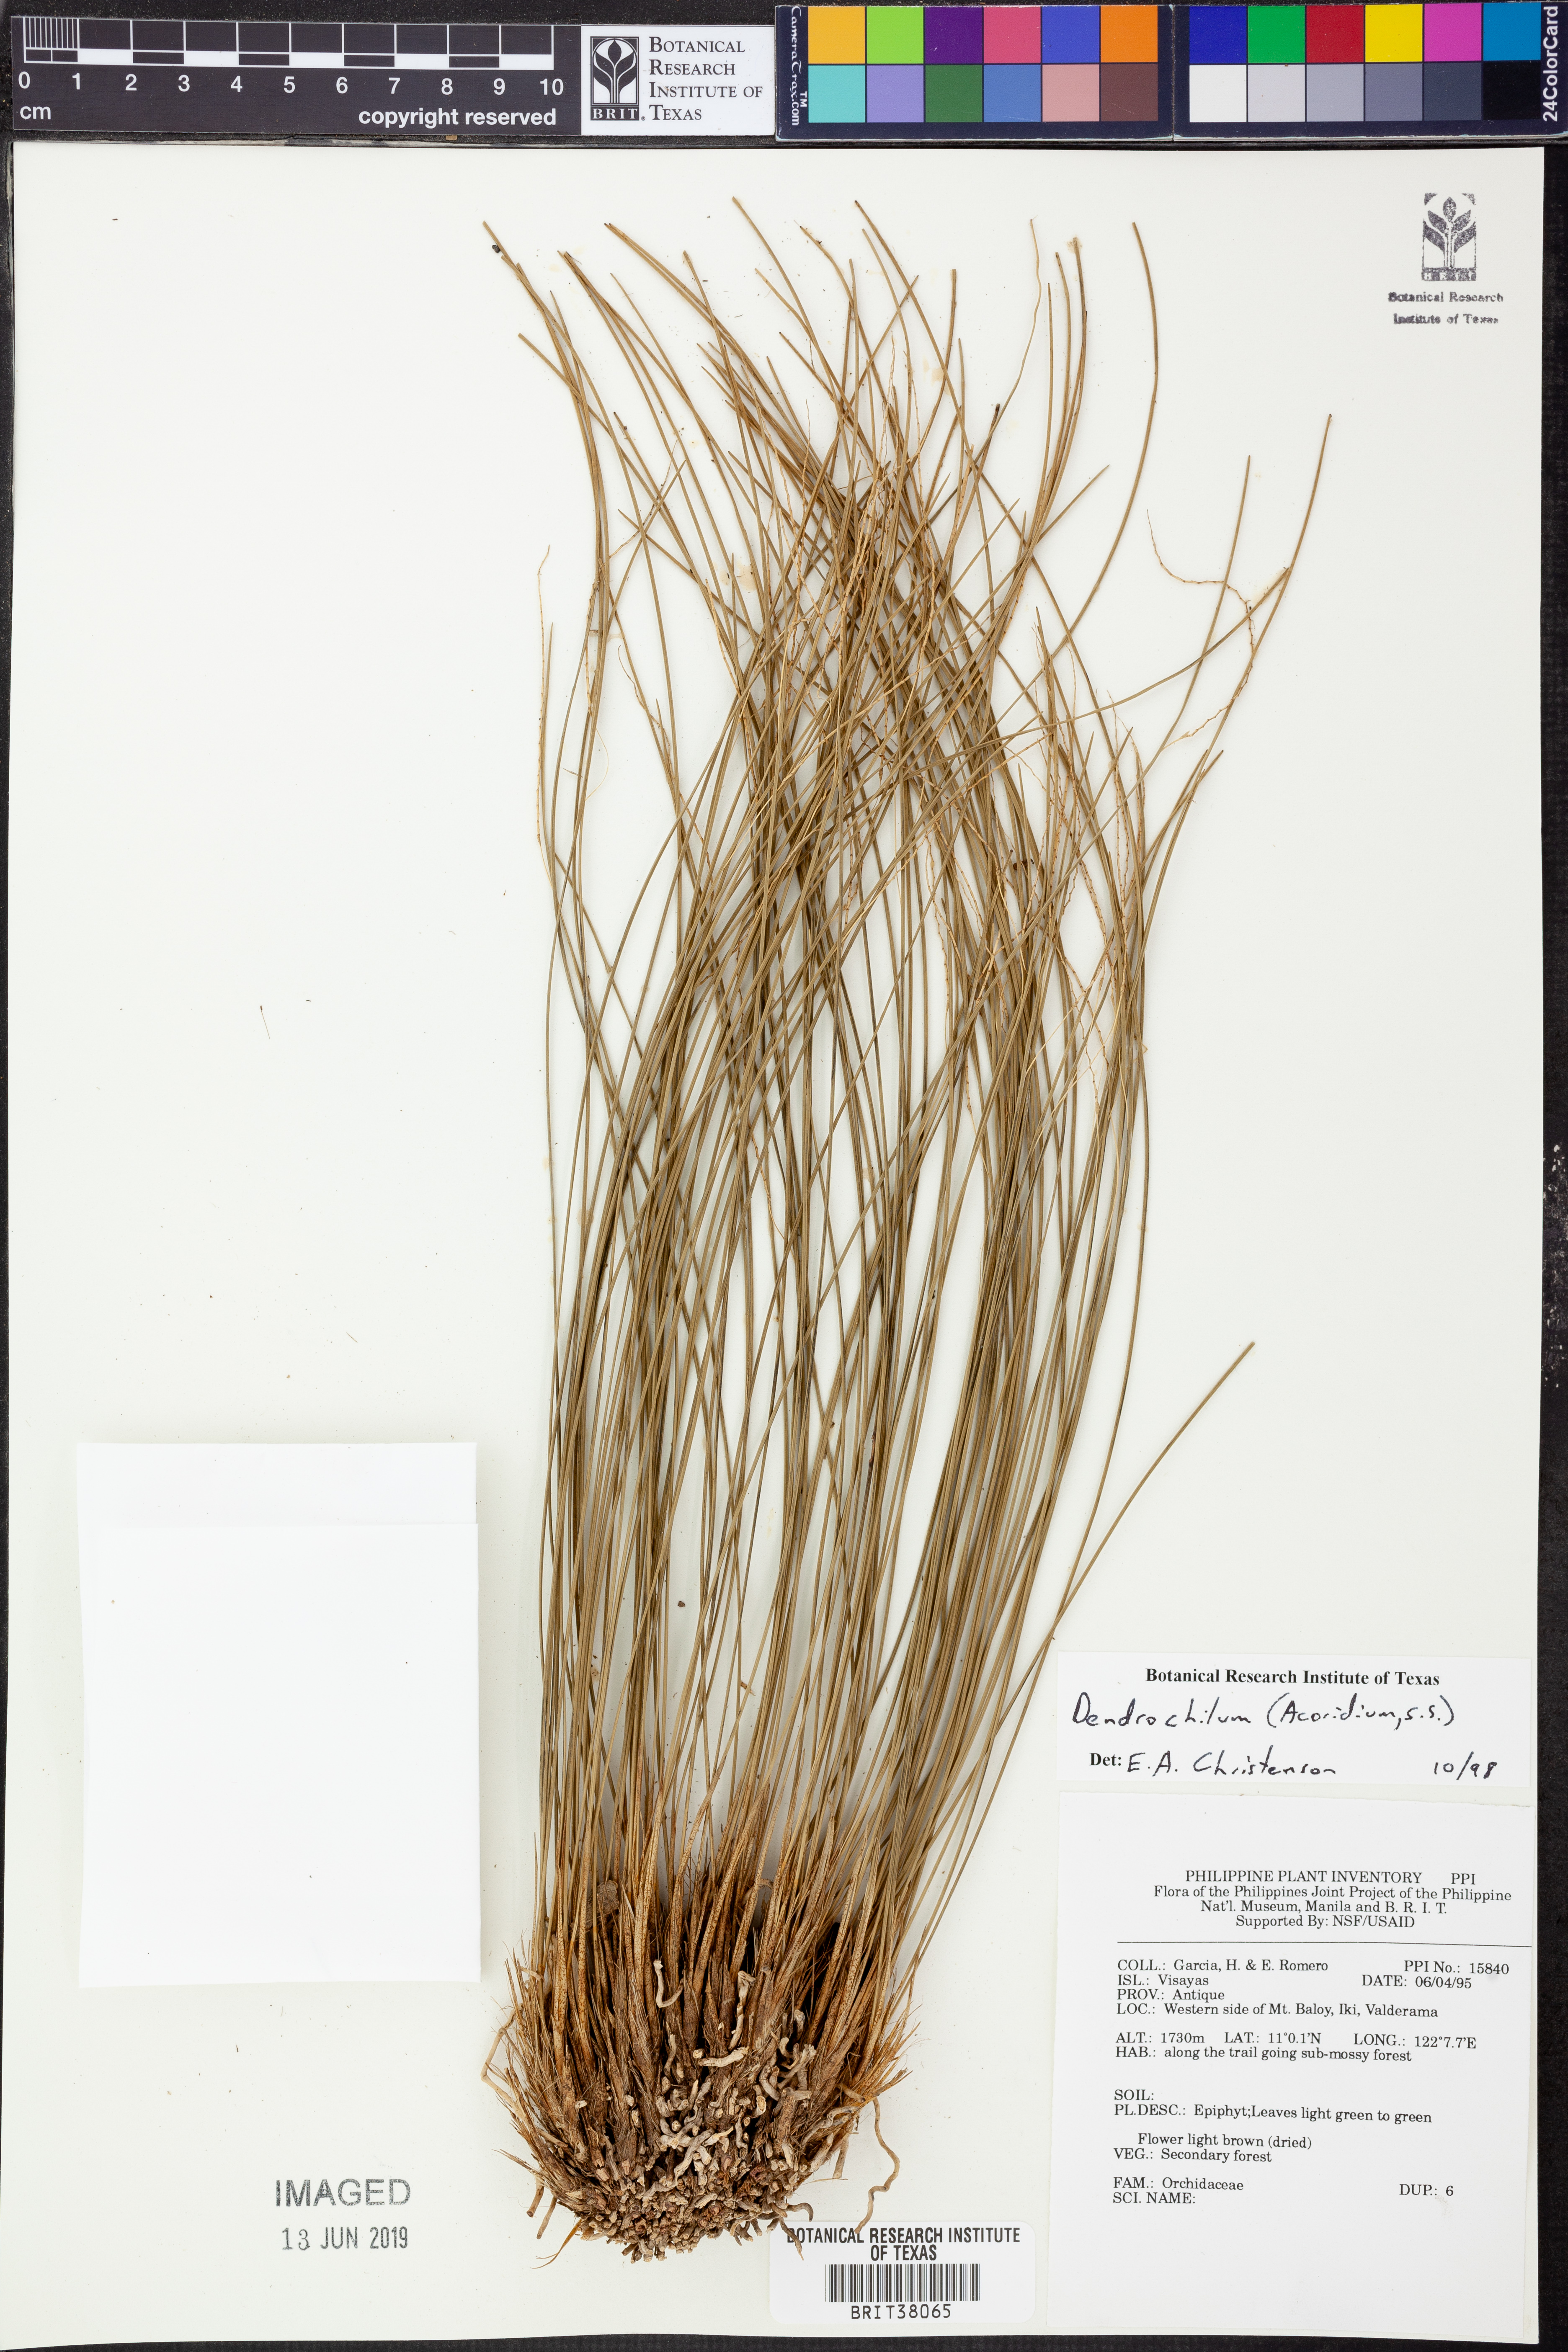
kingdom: Plantae
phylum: Tracheophyta
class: Liliopsida
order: Asparagales
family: Orchidaceae
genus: Coelogyne
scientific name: Coelogyne
